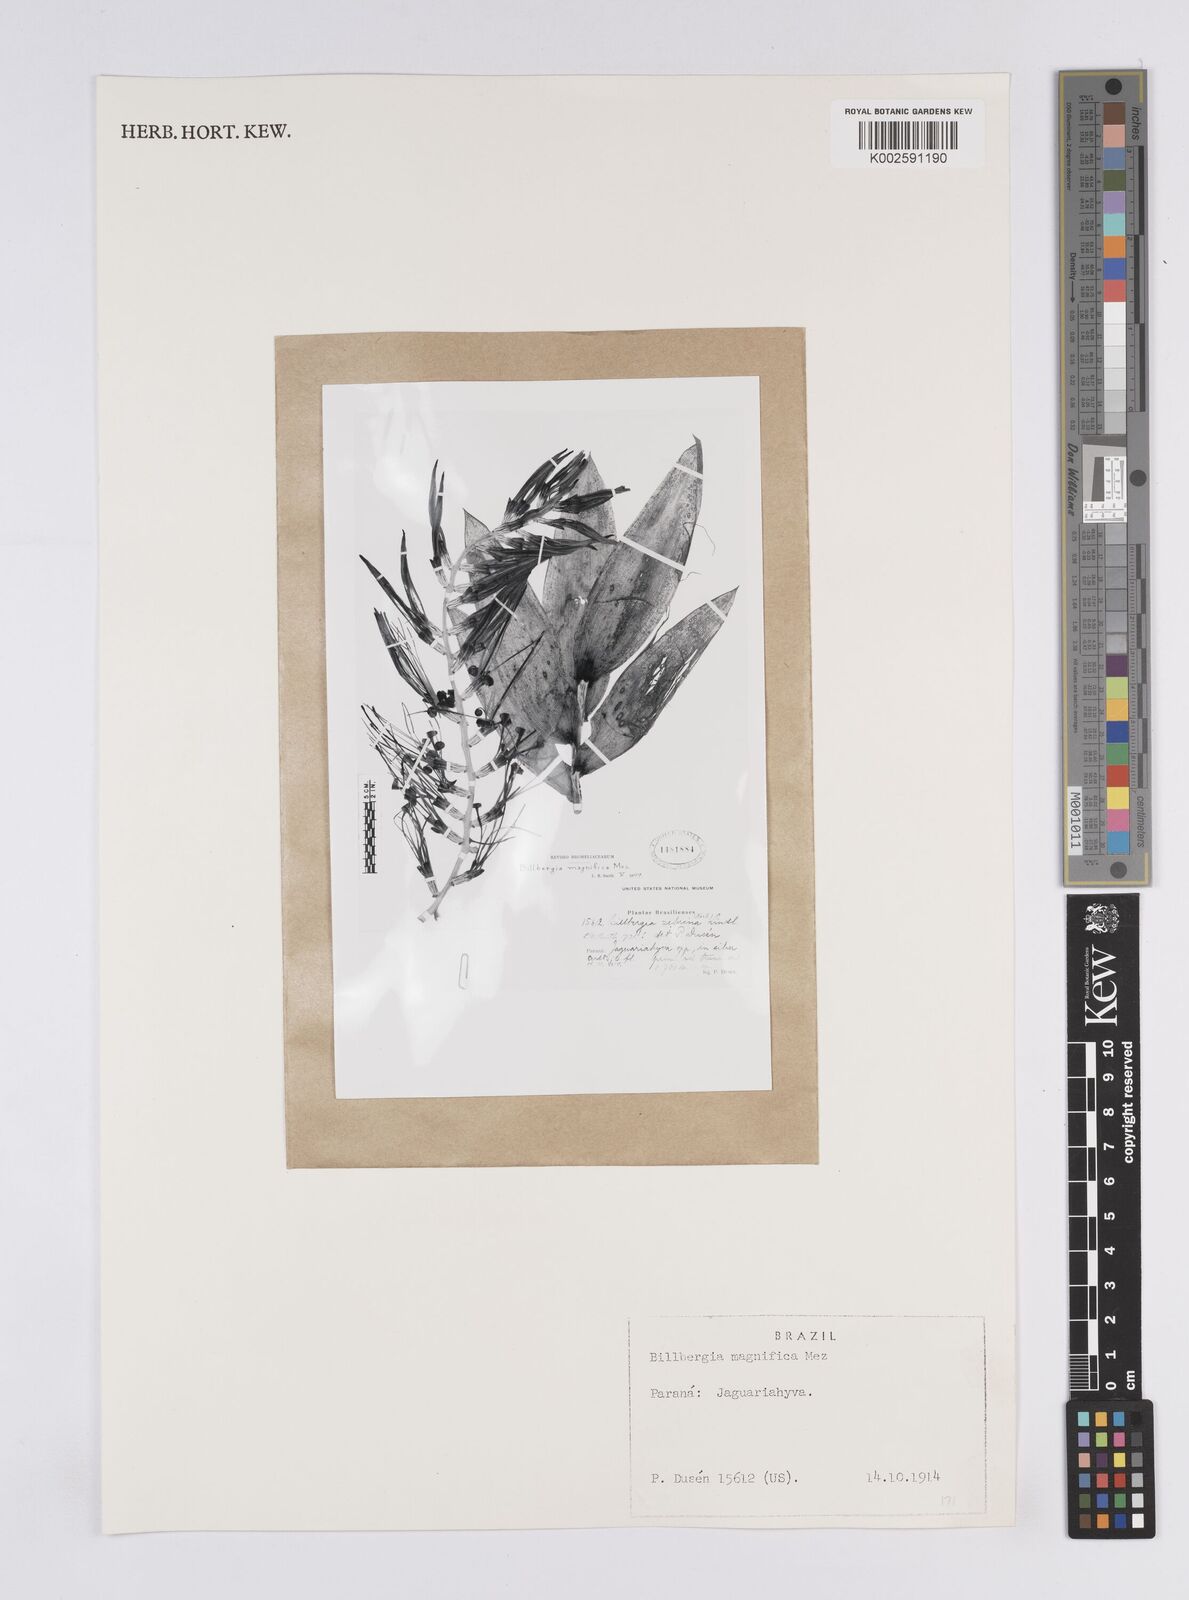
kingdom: Plantae
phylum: Tracheophyta
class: Liliopsida
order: Poales
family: Bromeliaceae
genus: Billbergia
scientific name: Billbergia magnifica
